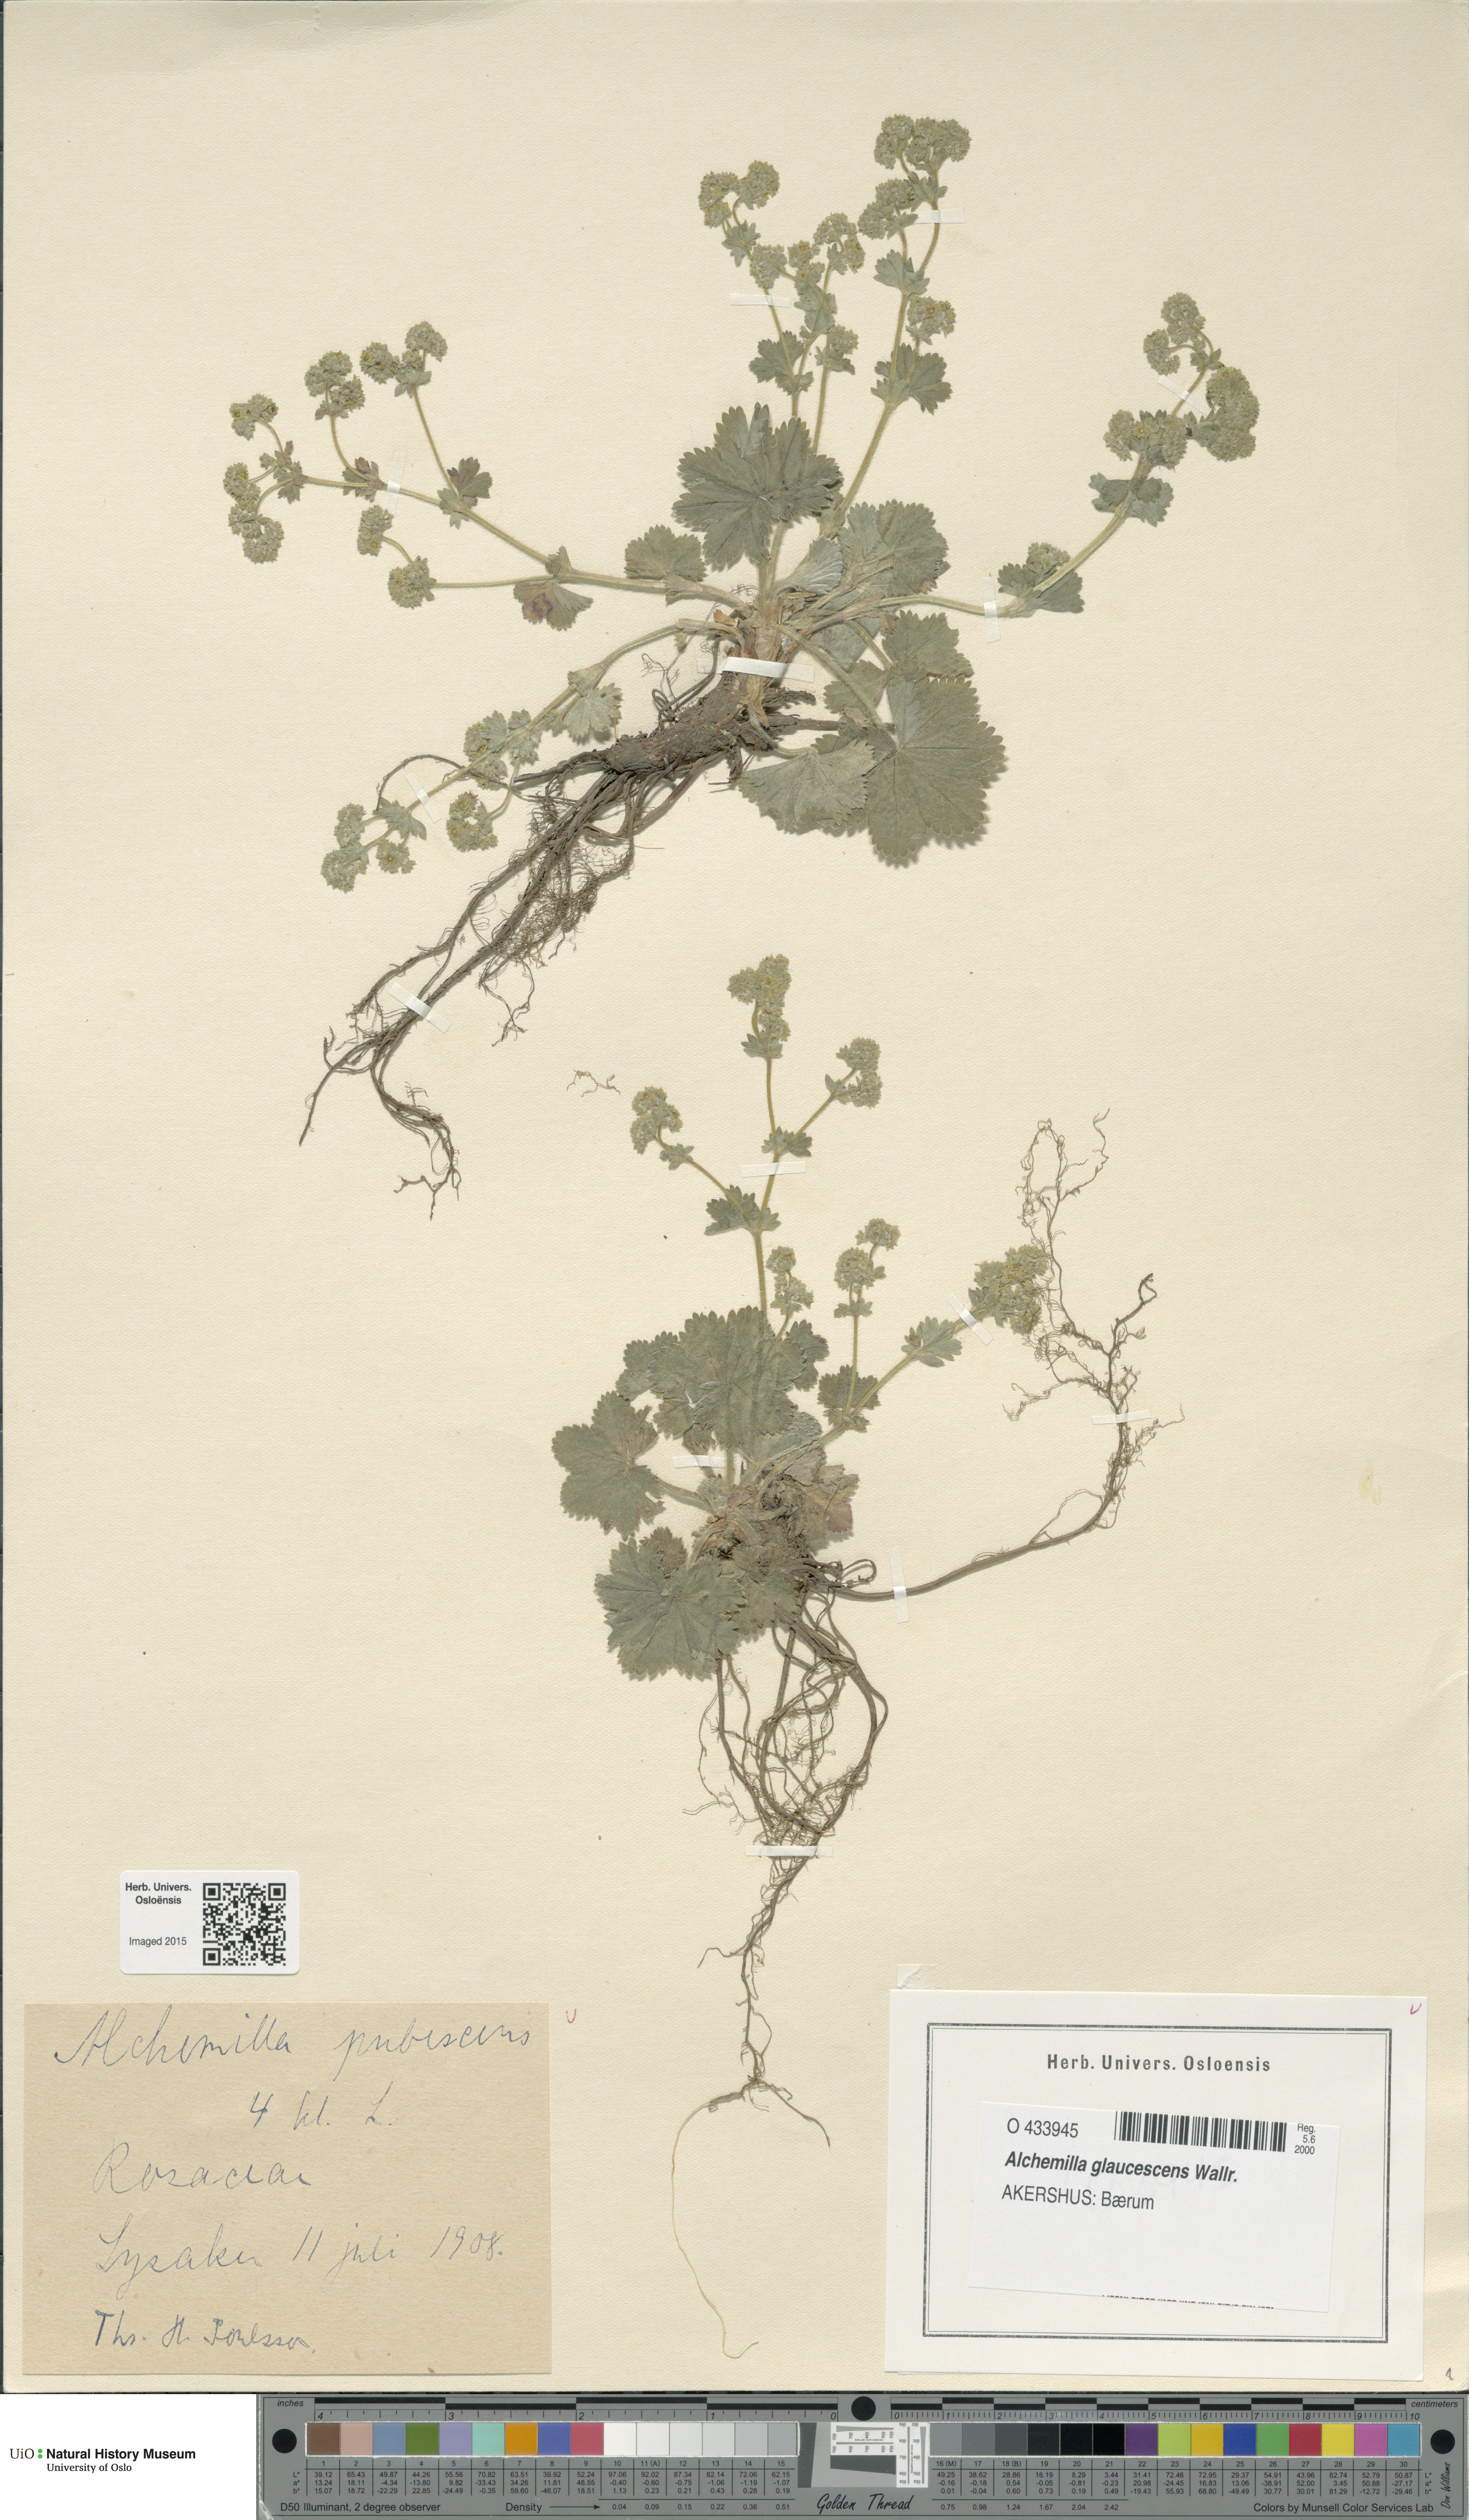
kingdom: Plantae
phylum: Tracheophyta
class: Magnoliopsida
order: Rosales
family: Rosaceae
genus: Alchemilla
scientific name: Alchemilla glaucescens
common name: Silky lady's mantle
